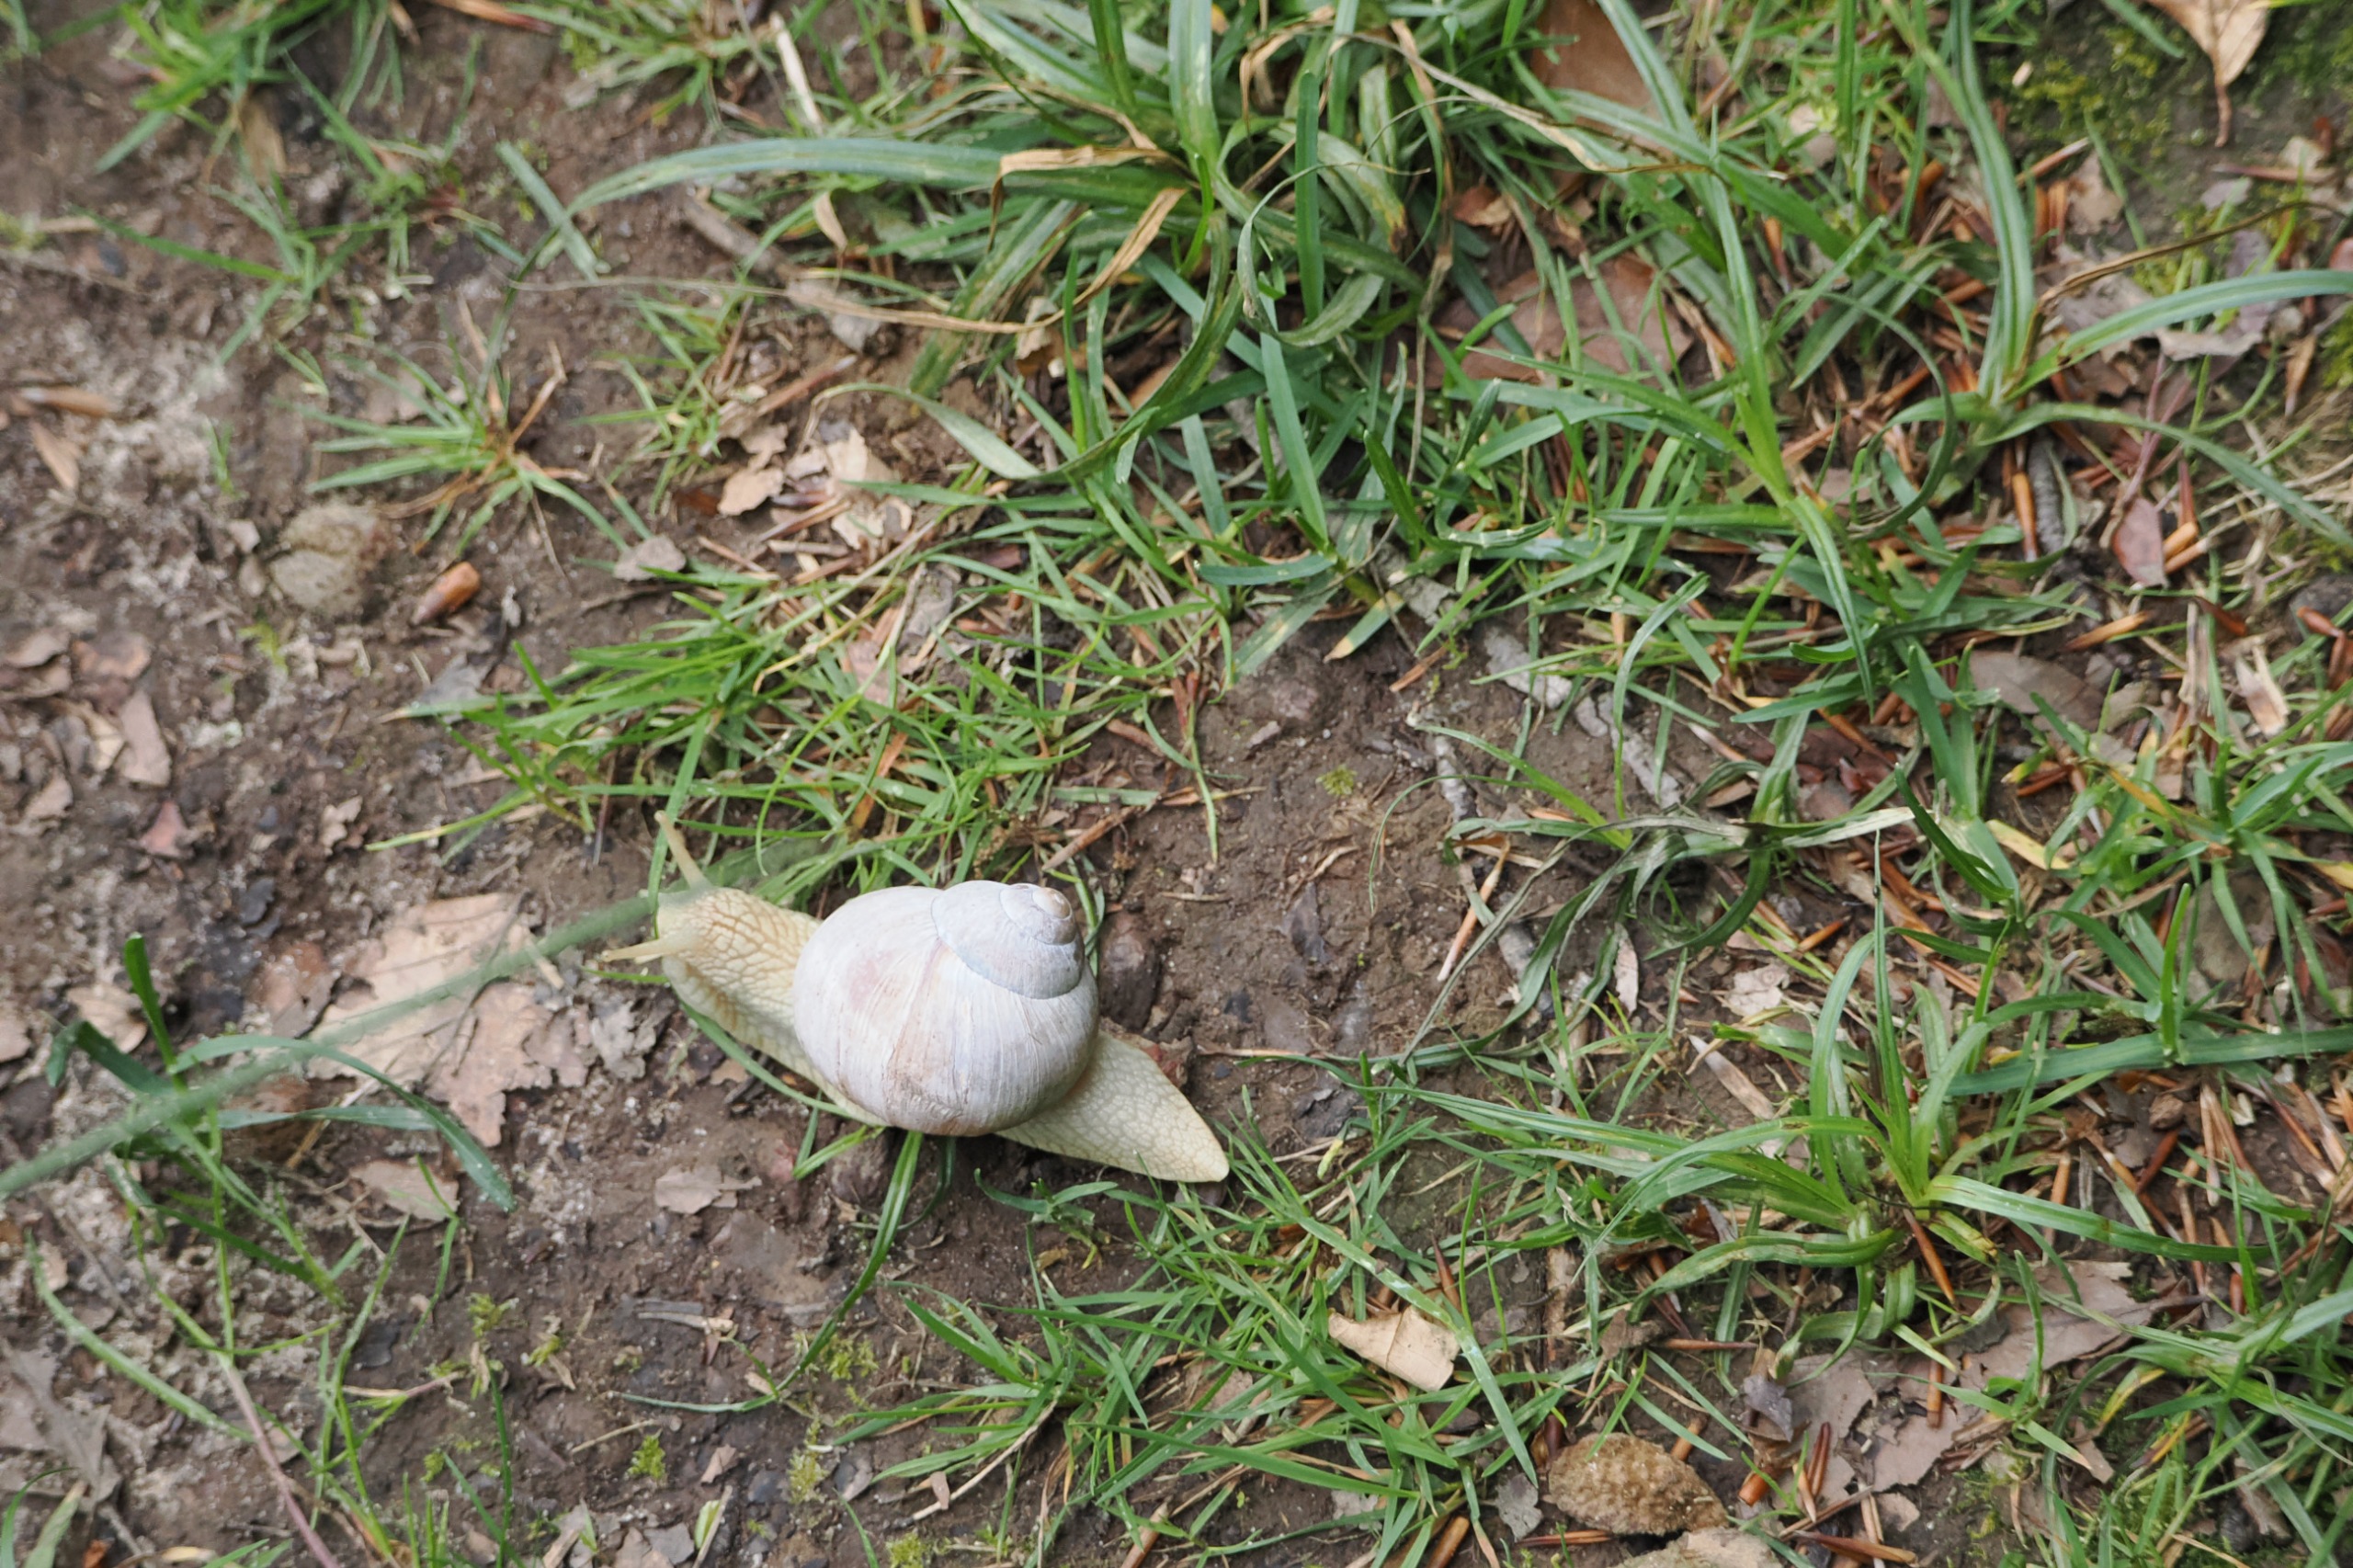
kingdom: Animalia
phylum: Mollusca
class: Gastropoda
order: Stylommatophora
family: Helicidae
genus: Helix
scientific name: Helix pomatia
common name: Vinbjergsnegl
